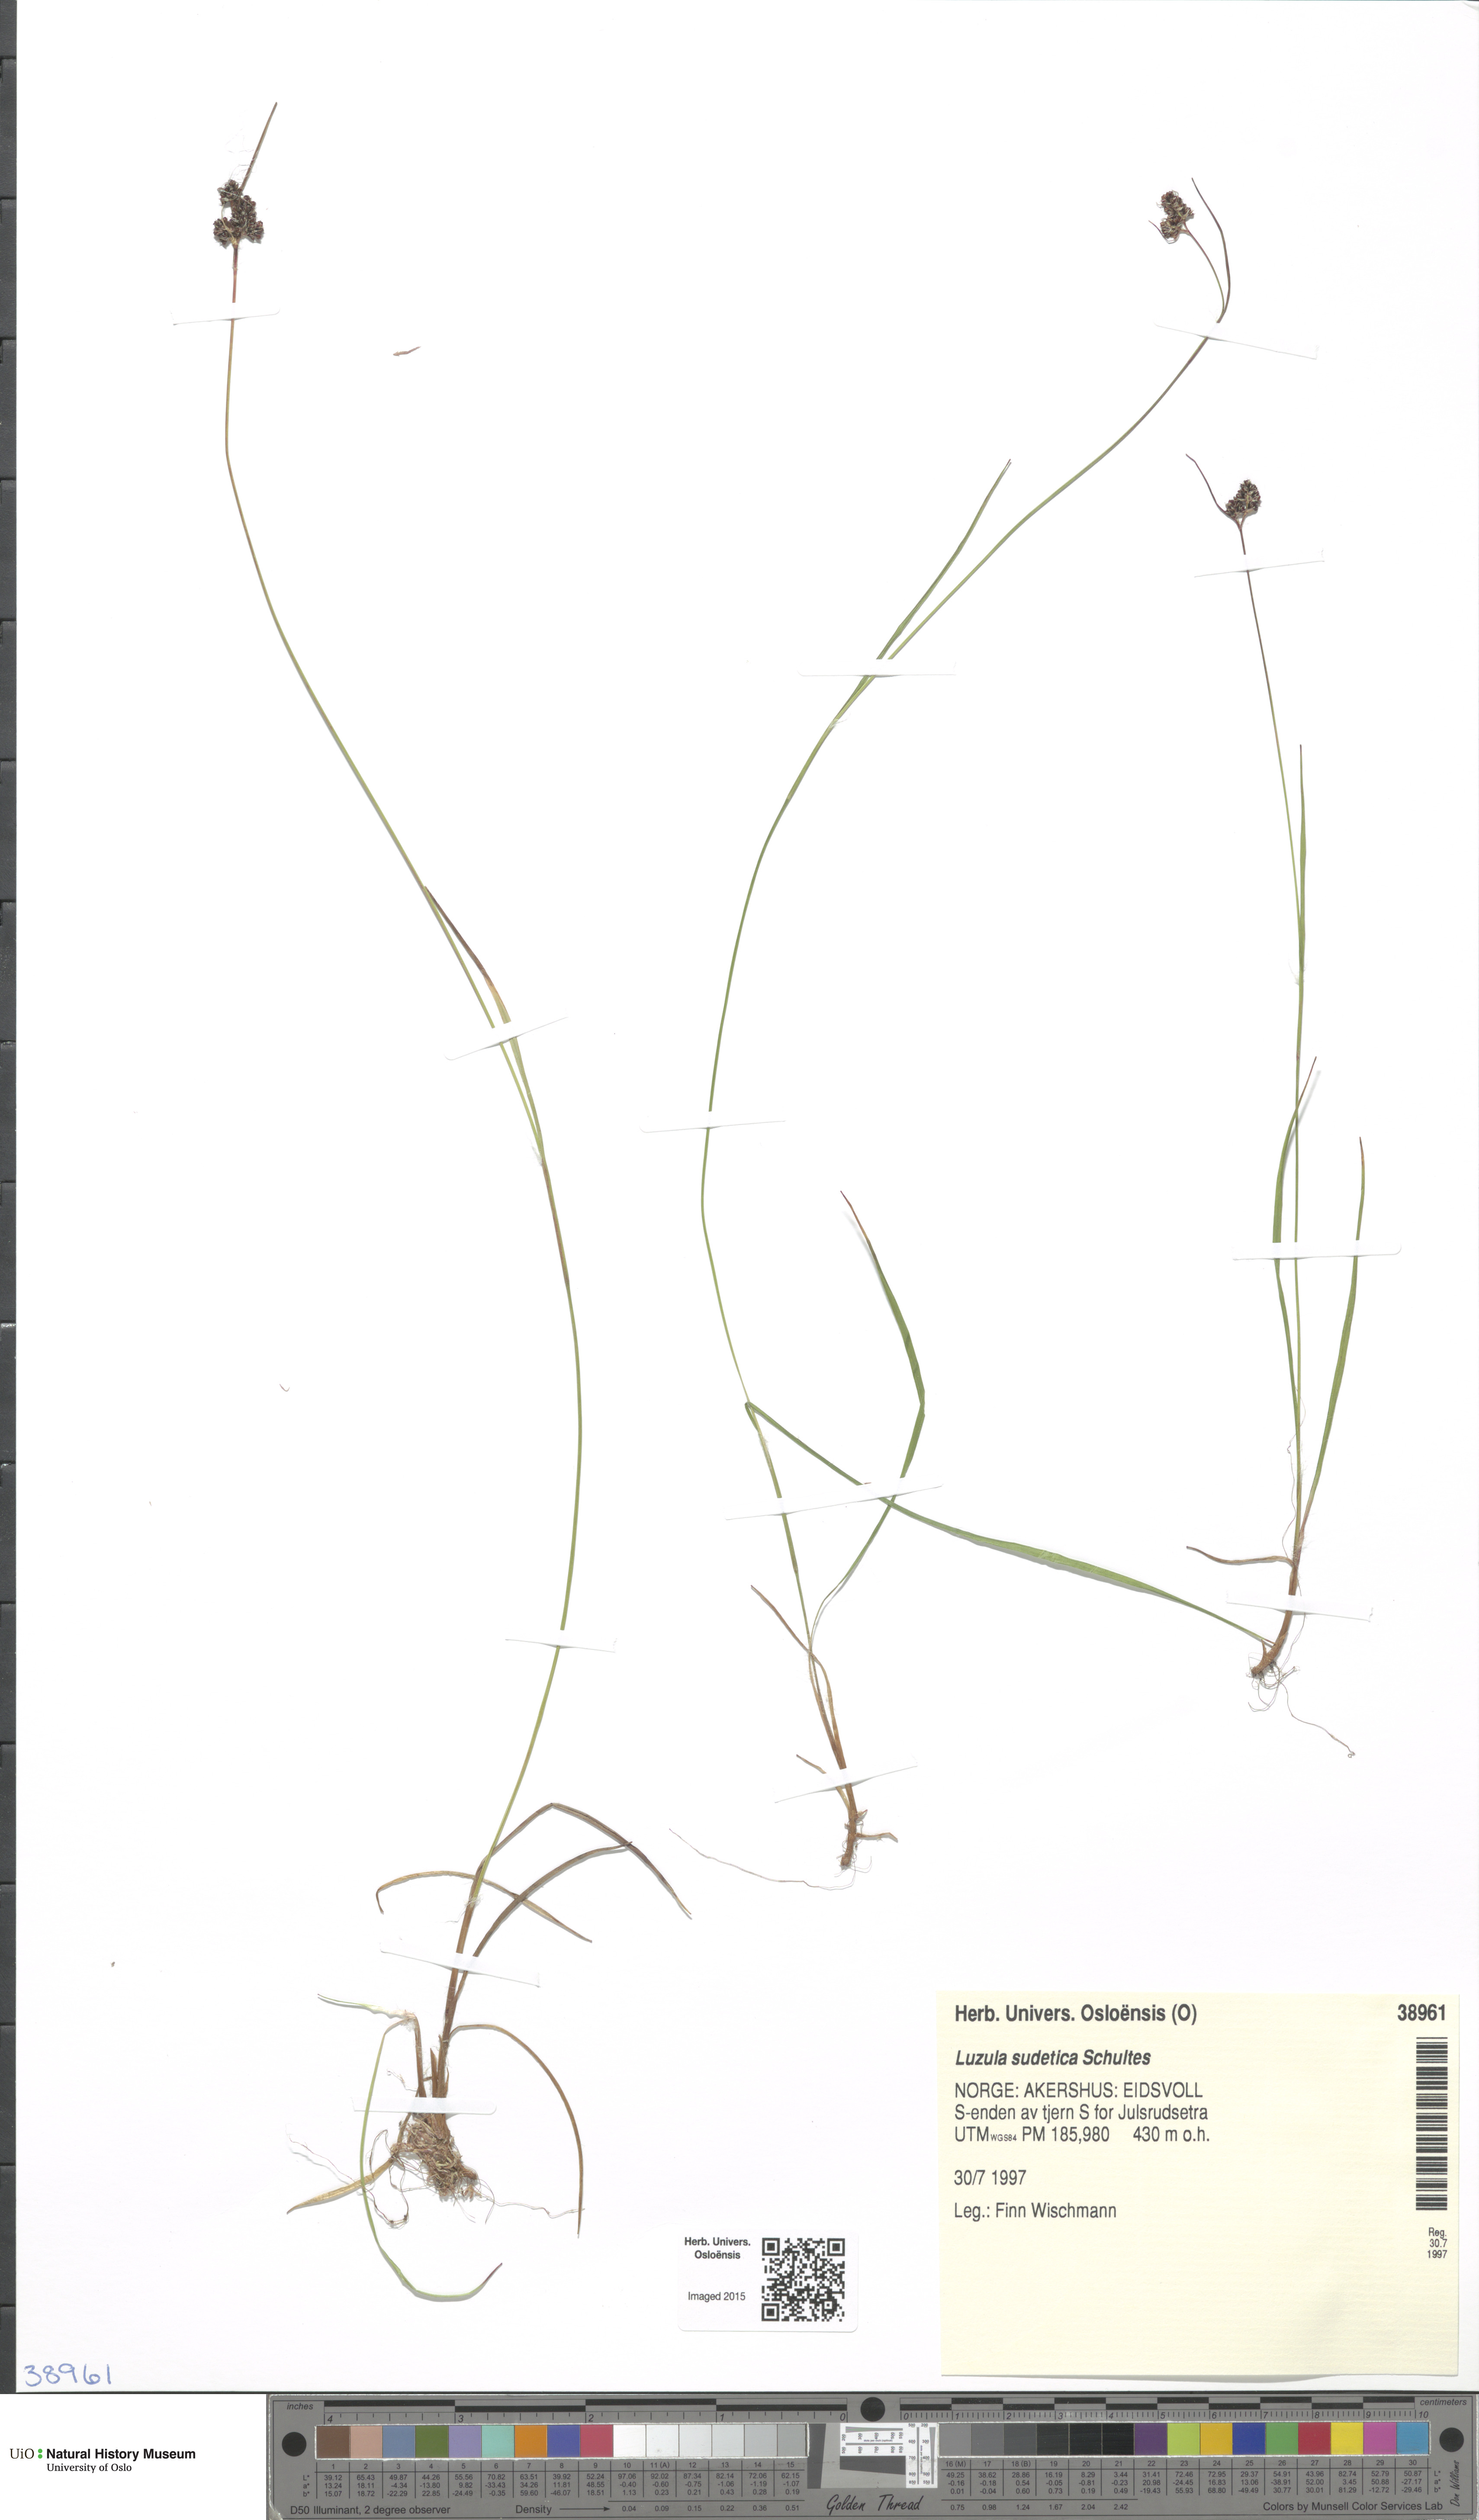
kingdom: Plantae
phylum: Tracheophyta
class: Liliopsida
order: Poales
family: Juncaceae
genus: Luzula
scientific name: Luzula sudetica
